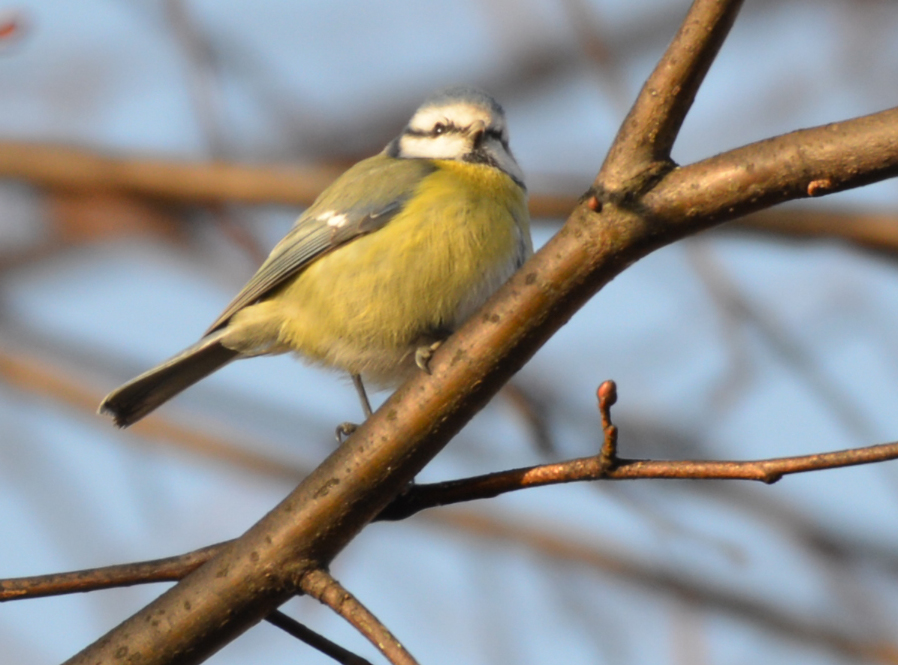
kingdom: Animalia
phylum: Chordata
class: Aves
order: Passeriformes
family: Paridae
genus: Cyanistes
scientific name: Cyanistes caeruleus
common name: Eurasian blue tit
